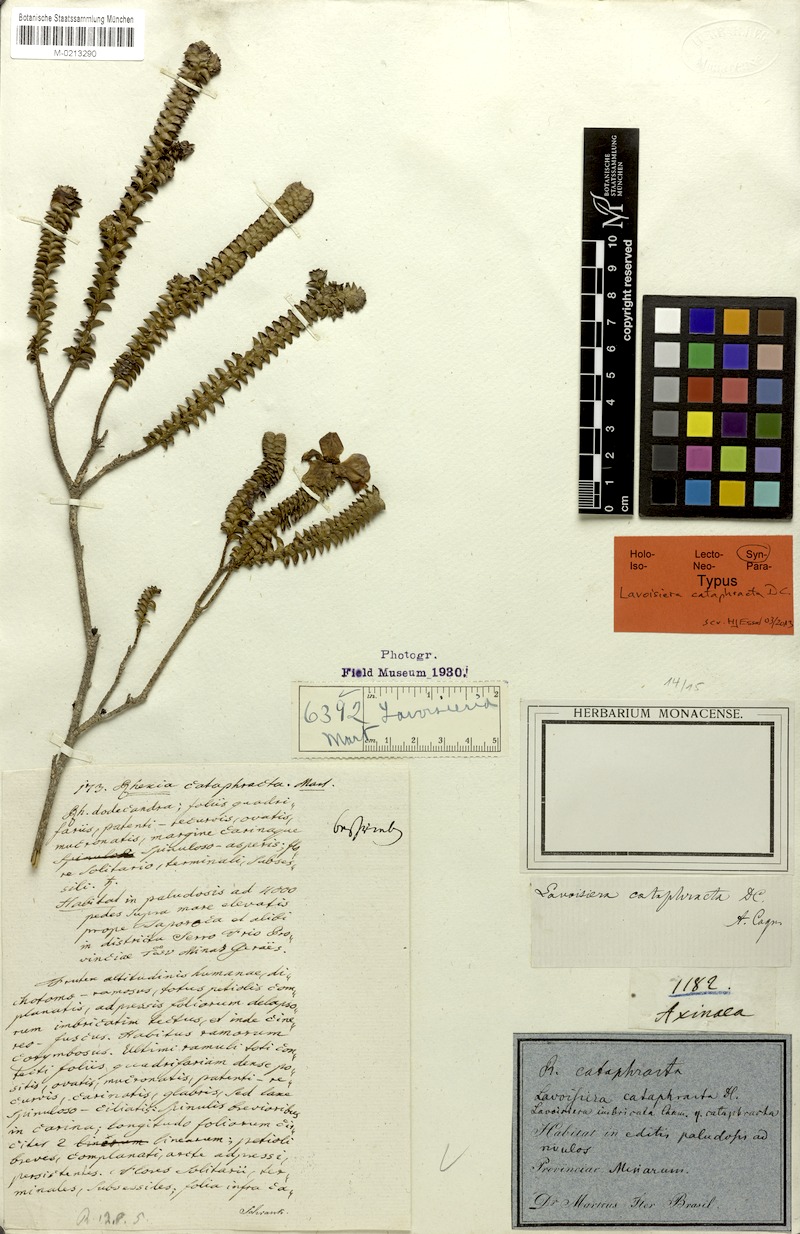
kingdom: Plantae
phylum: Tracheophyta
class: Magnoliopsida
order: Myrtales
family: Melastomataceae
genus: Microlicia
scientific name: Microlicia cataphracta
